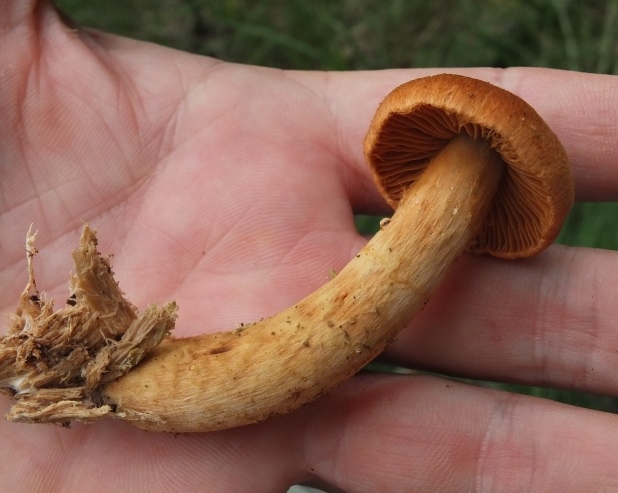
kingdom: Fungi
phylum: Basidiomycota
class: Agaricomycetes
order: Agaricales
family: Cortinariaceae
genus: Cortinarius
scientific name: Cortinarius rubellus
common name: puklet gift-slørhat
